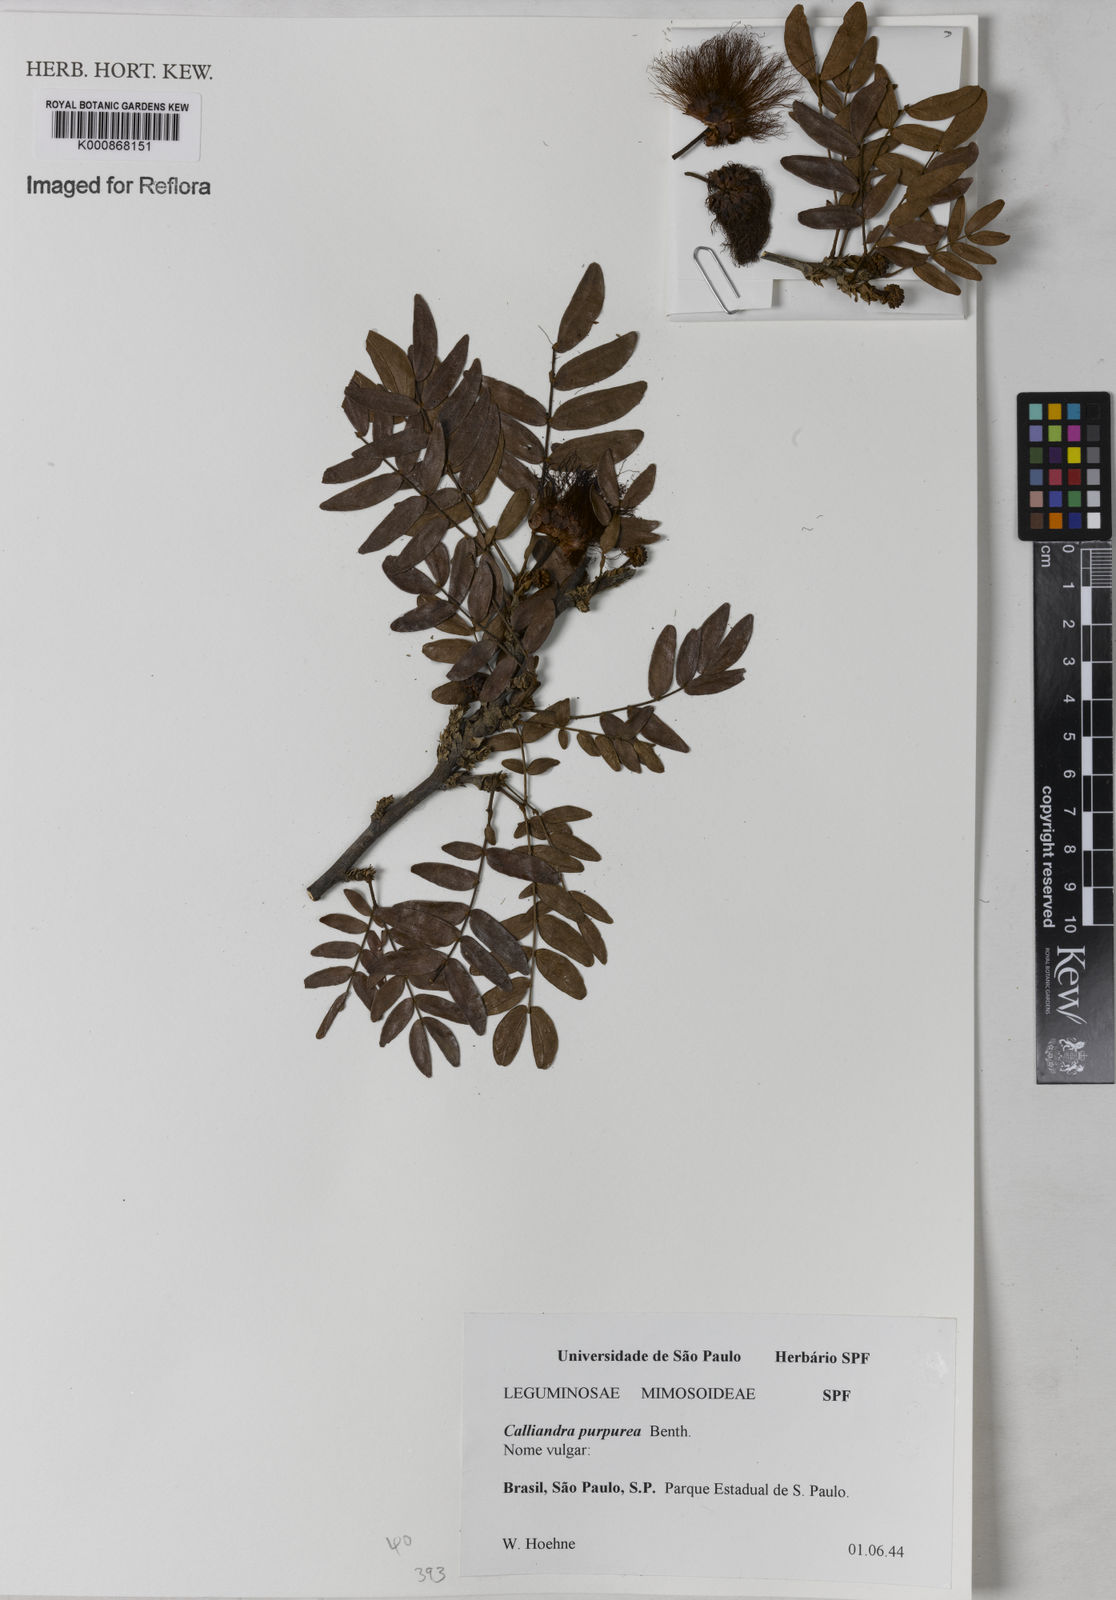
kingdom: Plantae
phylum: Tracheophyta
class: Magnoliopsida
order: Fabales
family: Fabaceae
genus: Calliandra
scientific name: Calliandra purpurea
